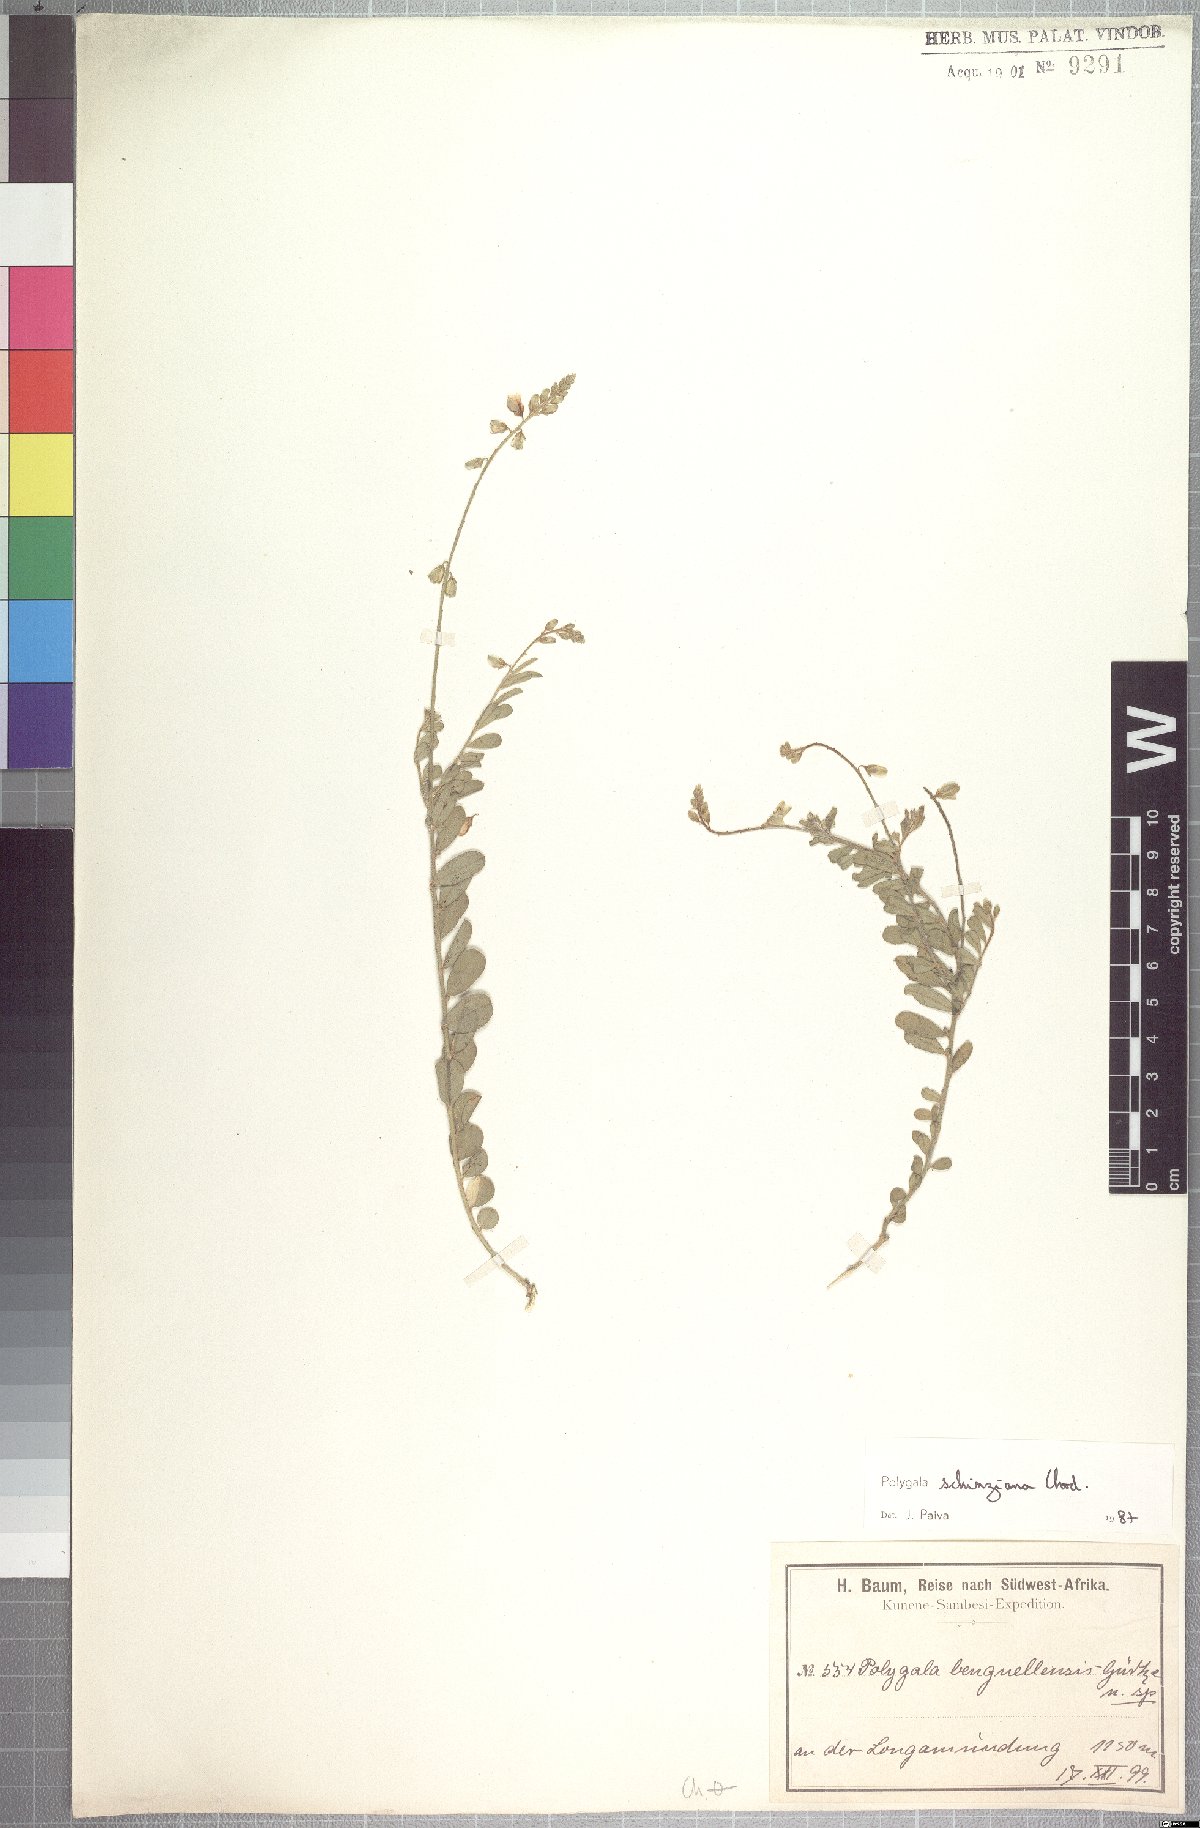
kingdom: Plantae
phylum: Tracheophyta
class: Magnoliopsida
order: Fabales
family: Polygalaceae
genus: Polygala
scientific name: Polygala schinziana
